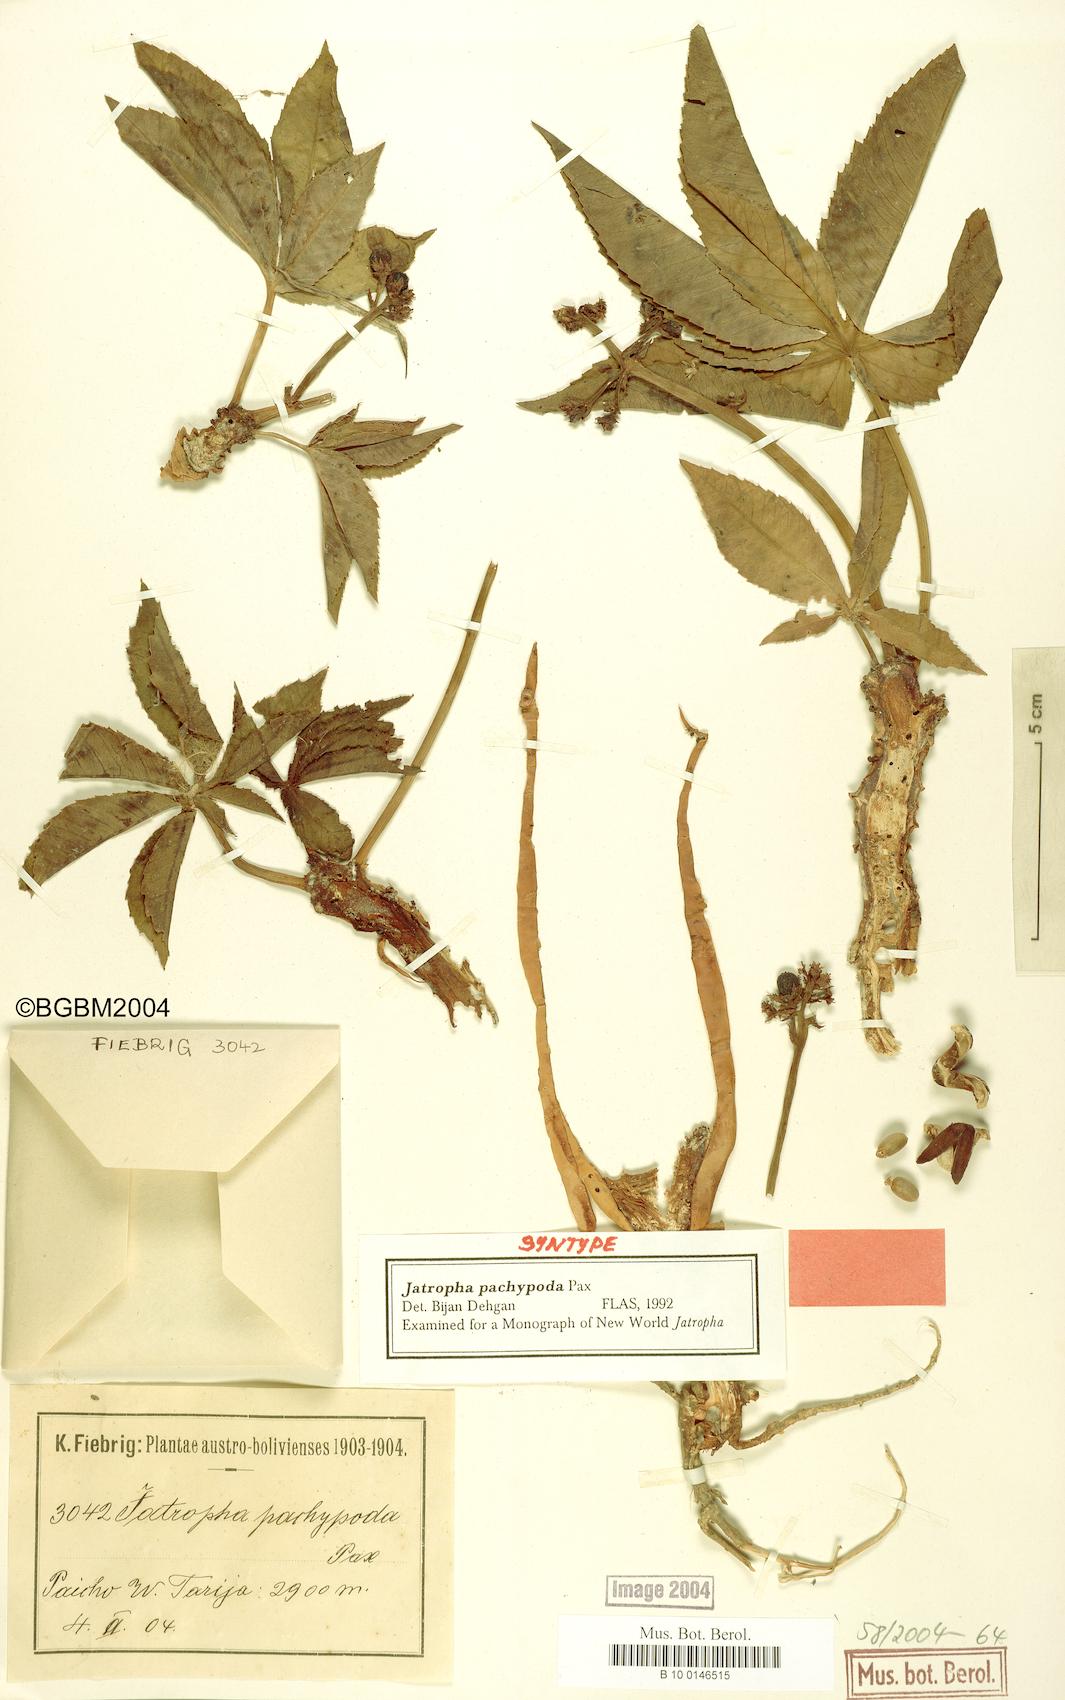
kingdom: Plantae
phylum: Tracheophyta
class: Magnoliopsida
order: Malpighiales
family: Euphorbiaceae
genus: Jatropha
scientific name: Jatropha pachypoda
